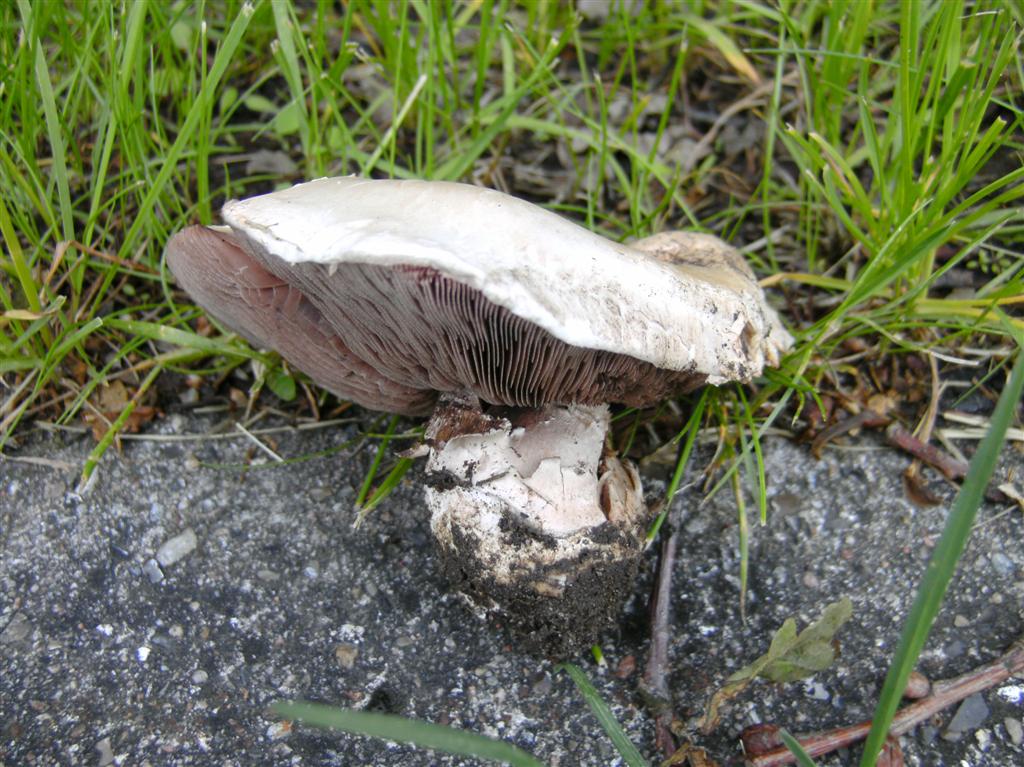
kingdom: Fungi
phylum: Basidiomycota
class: Agaricomycetes
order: Agaricales
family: Agaricaceae
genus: Agaricus
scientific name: Agaricus bitorquis
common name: vej-champignon
